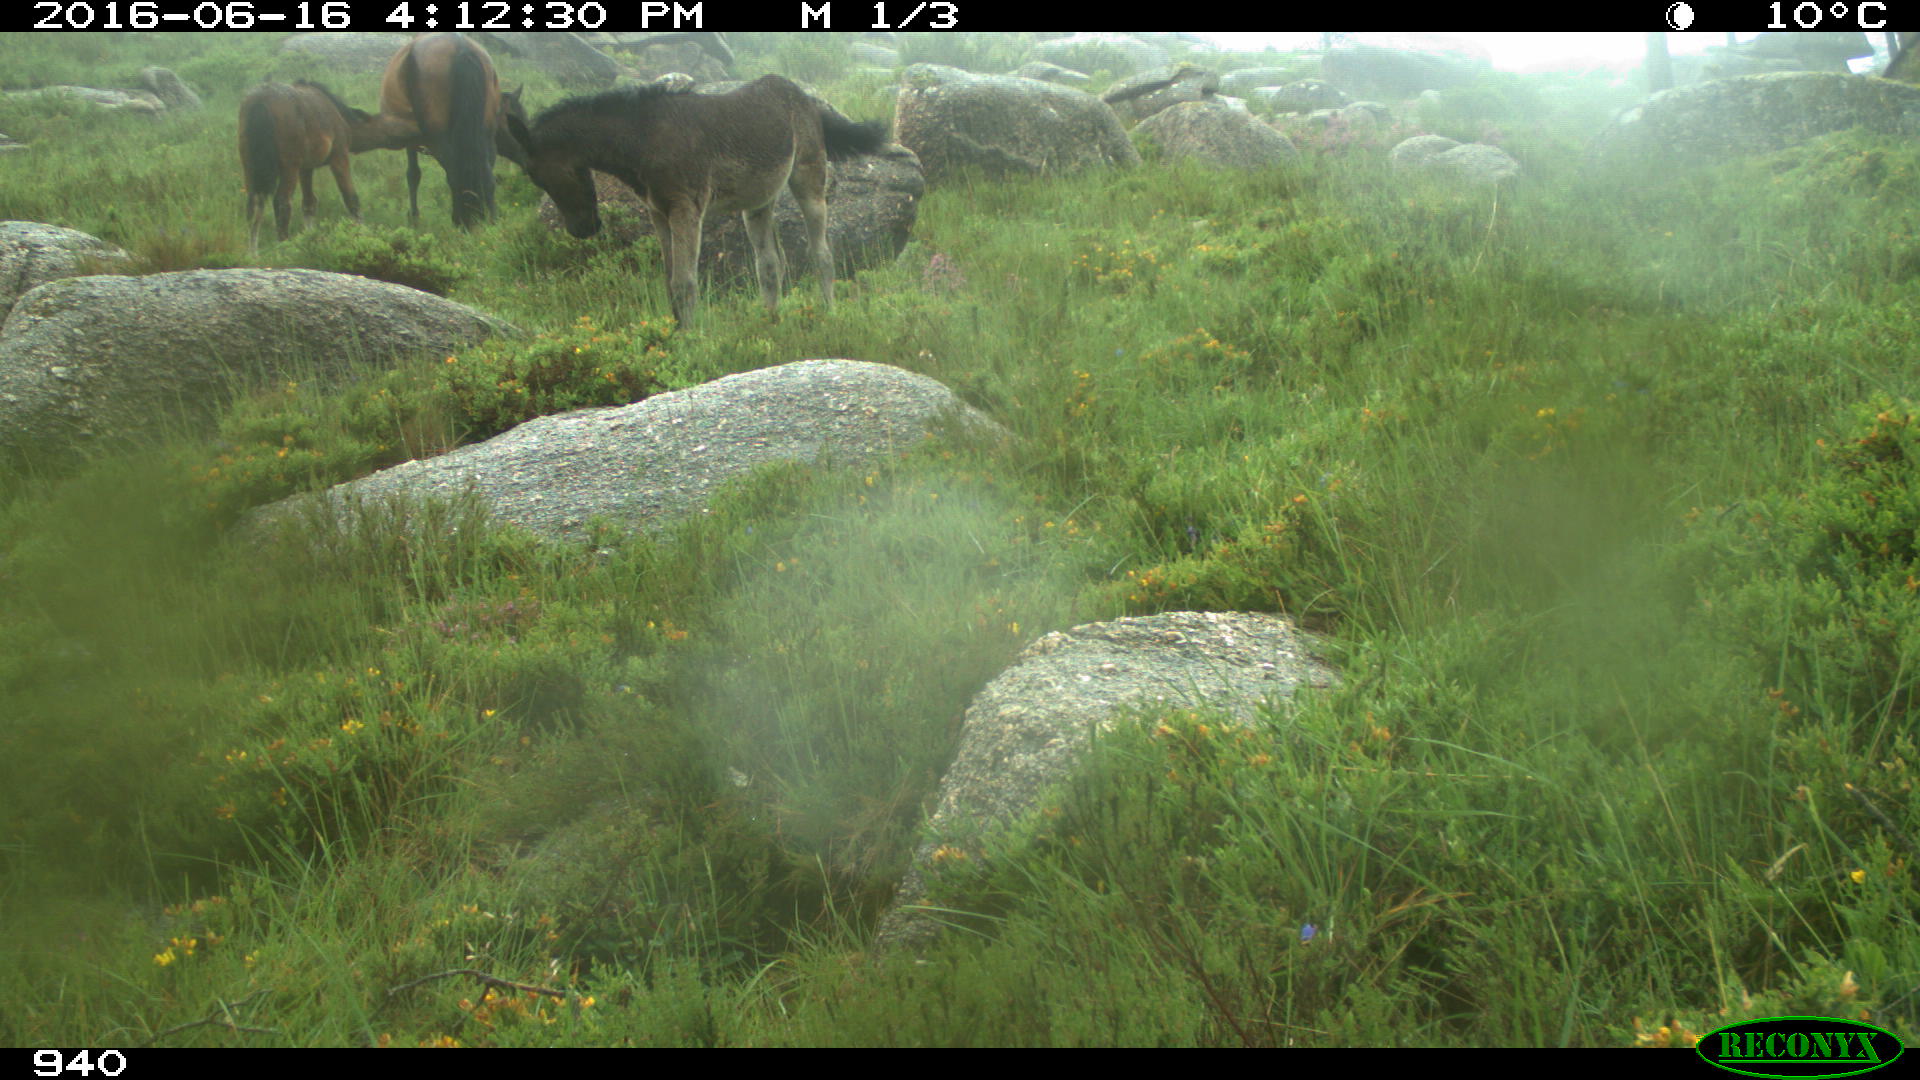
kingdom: Animalia
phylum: Chordata
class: Mammalia
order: Perissodactyla
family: Equidae
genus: Equus
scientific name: Equus caballus
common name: Horse
